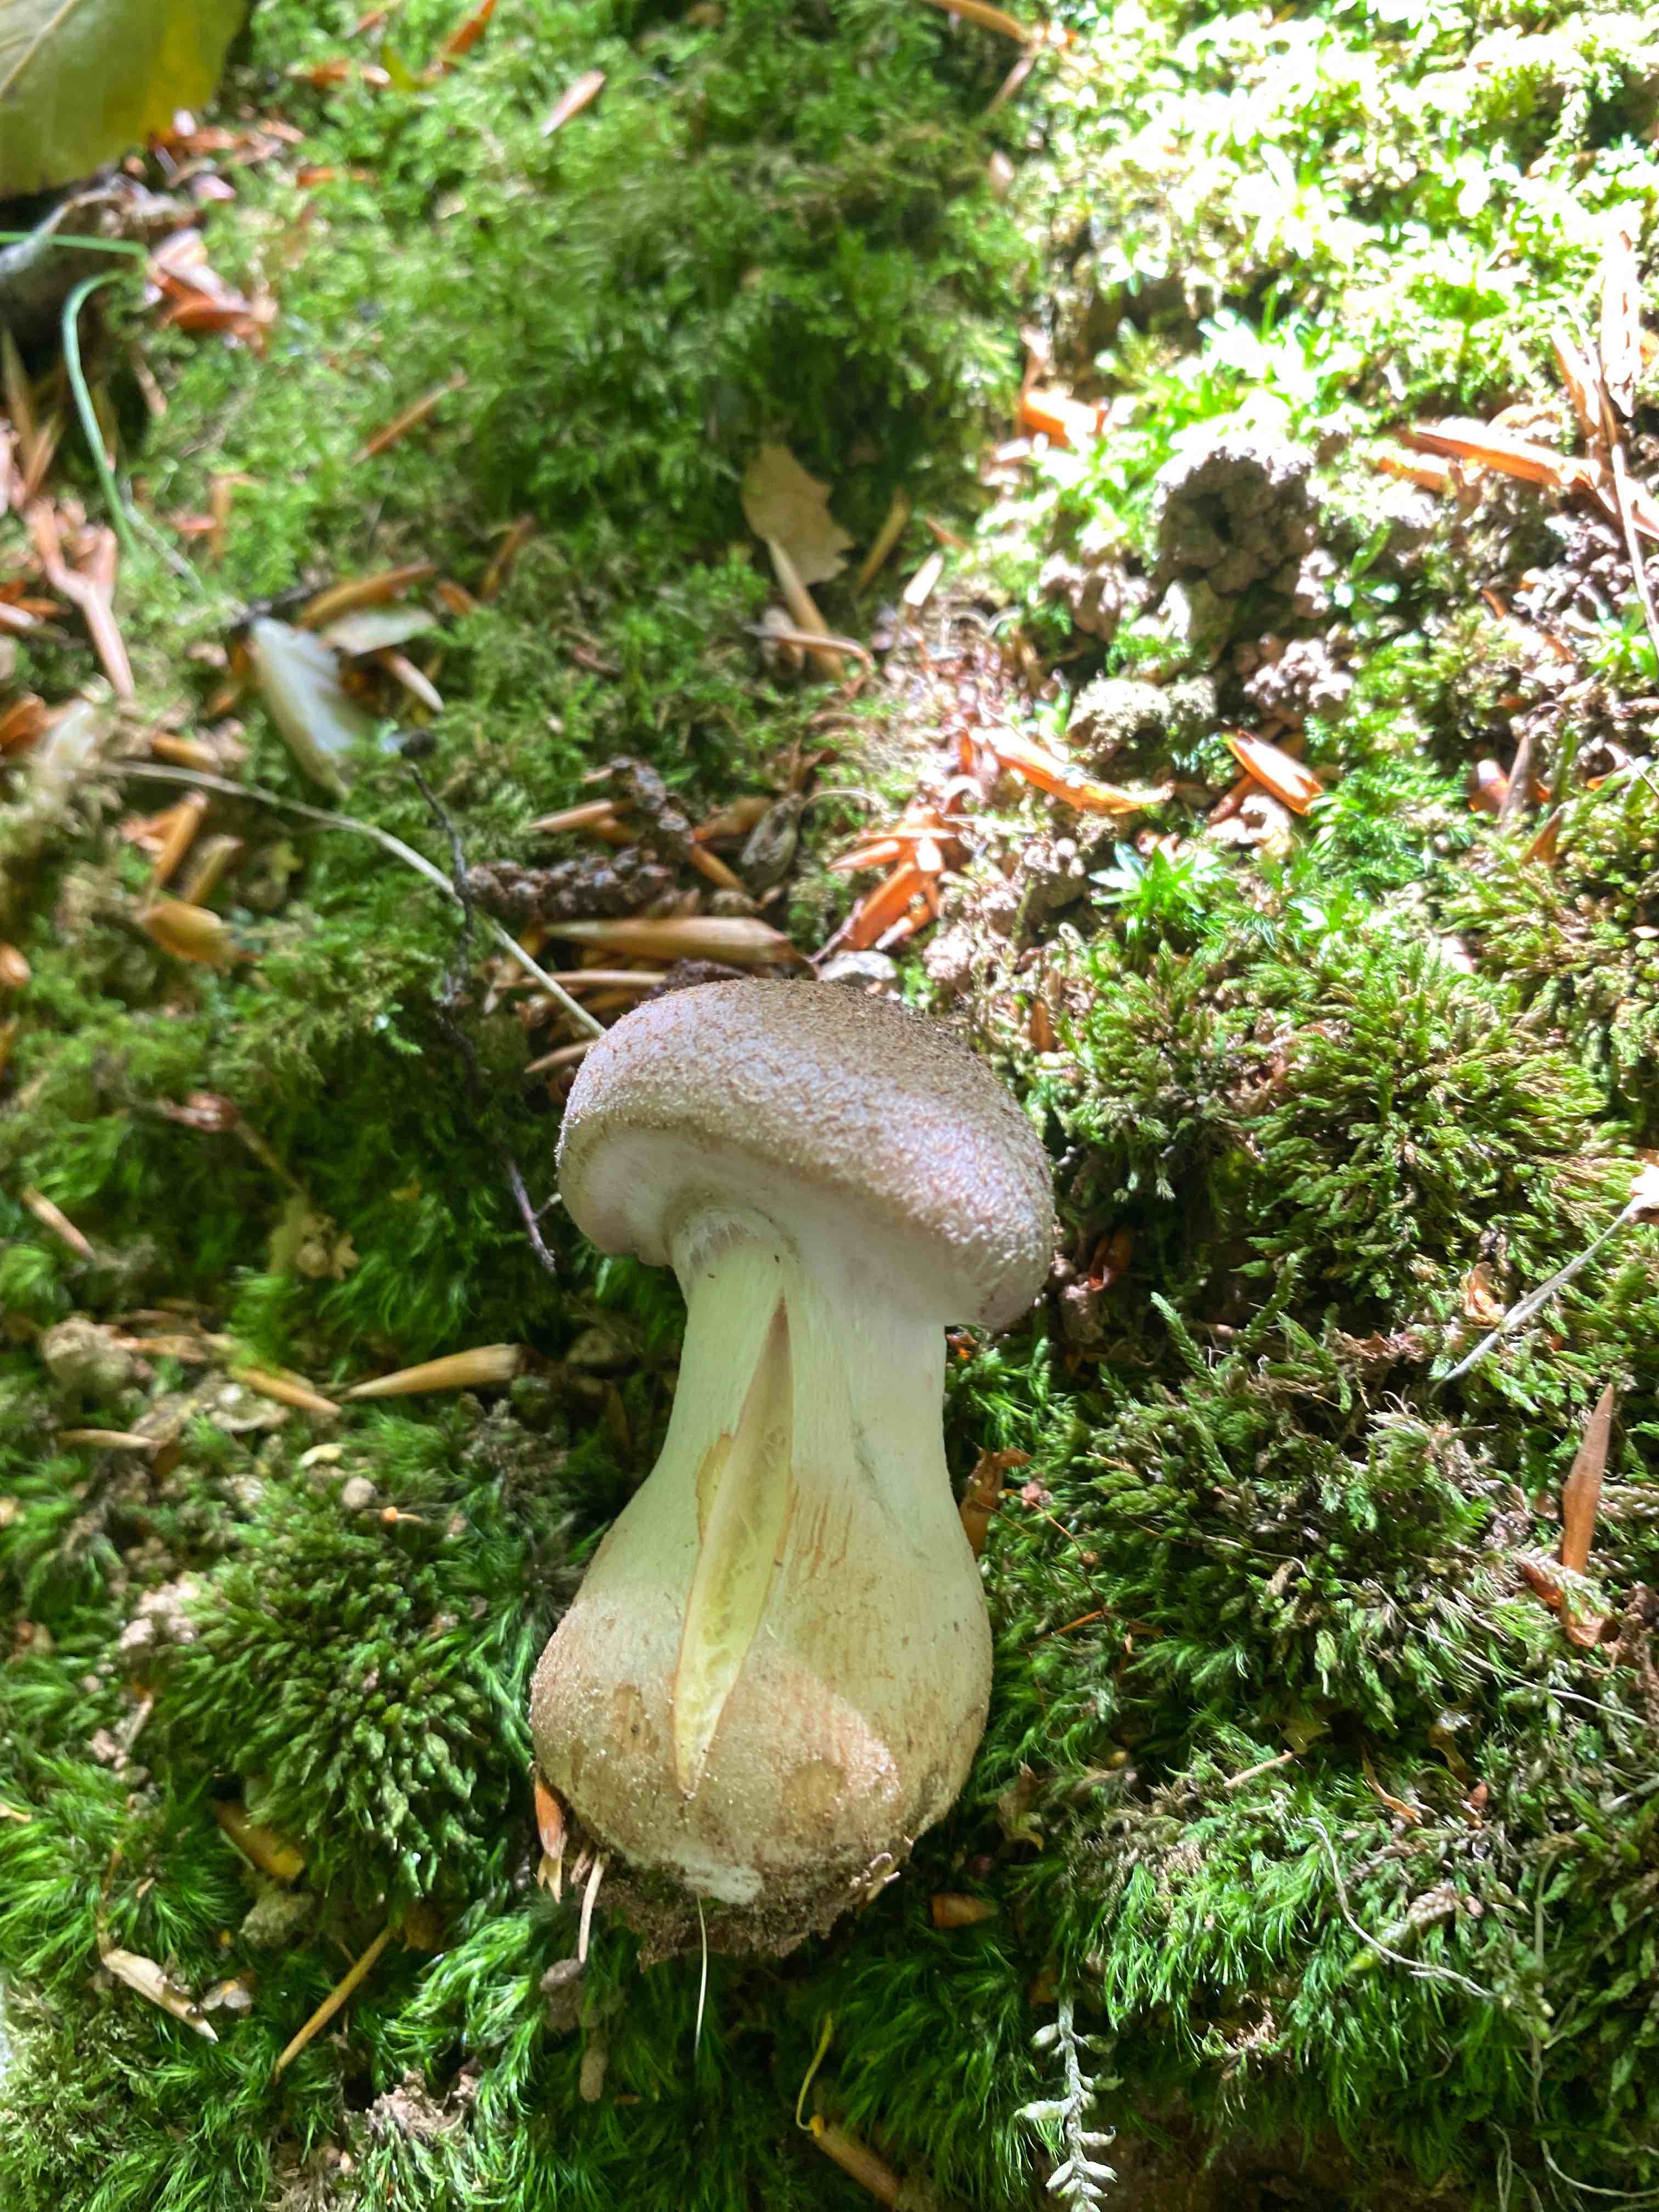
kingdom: Fungi
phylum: Basidiomycota
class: Agaricomycetes
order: Agaricales
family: Physalacriaceae
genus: Armillaria
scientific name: Armillaria lutea
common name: køllestokket honningsvamp
